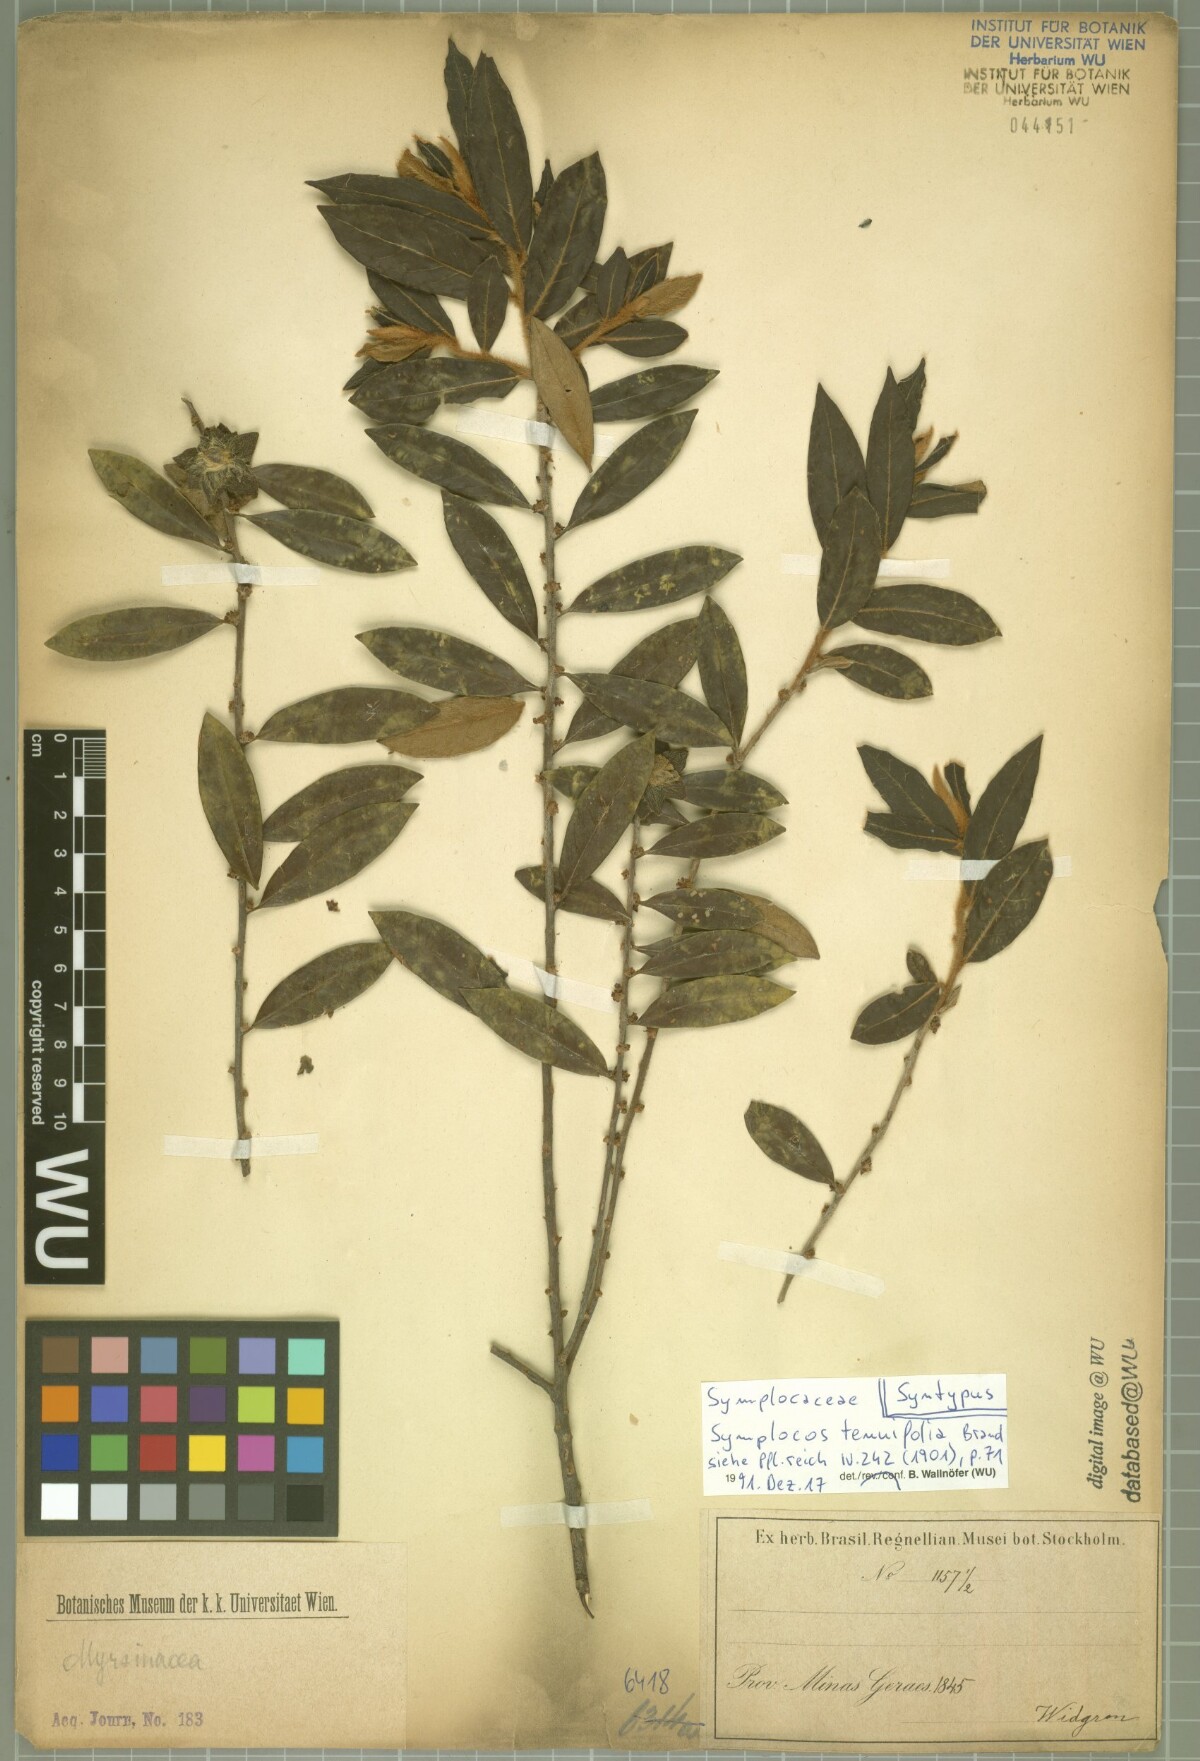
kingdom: Plantae
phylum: Tracheophyta
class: Magnoliopsida
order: Ericales
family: Symplocaceae
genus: Symplocos
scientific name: Symplocos tenuifolia
